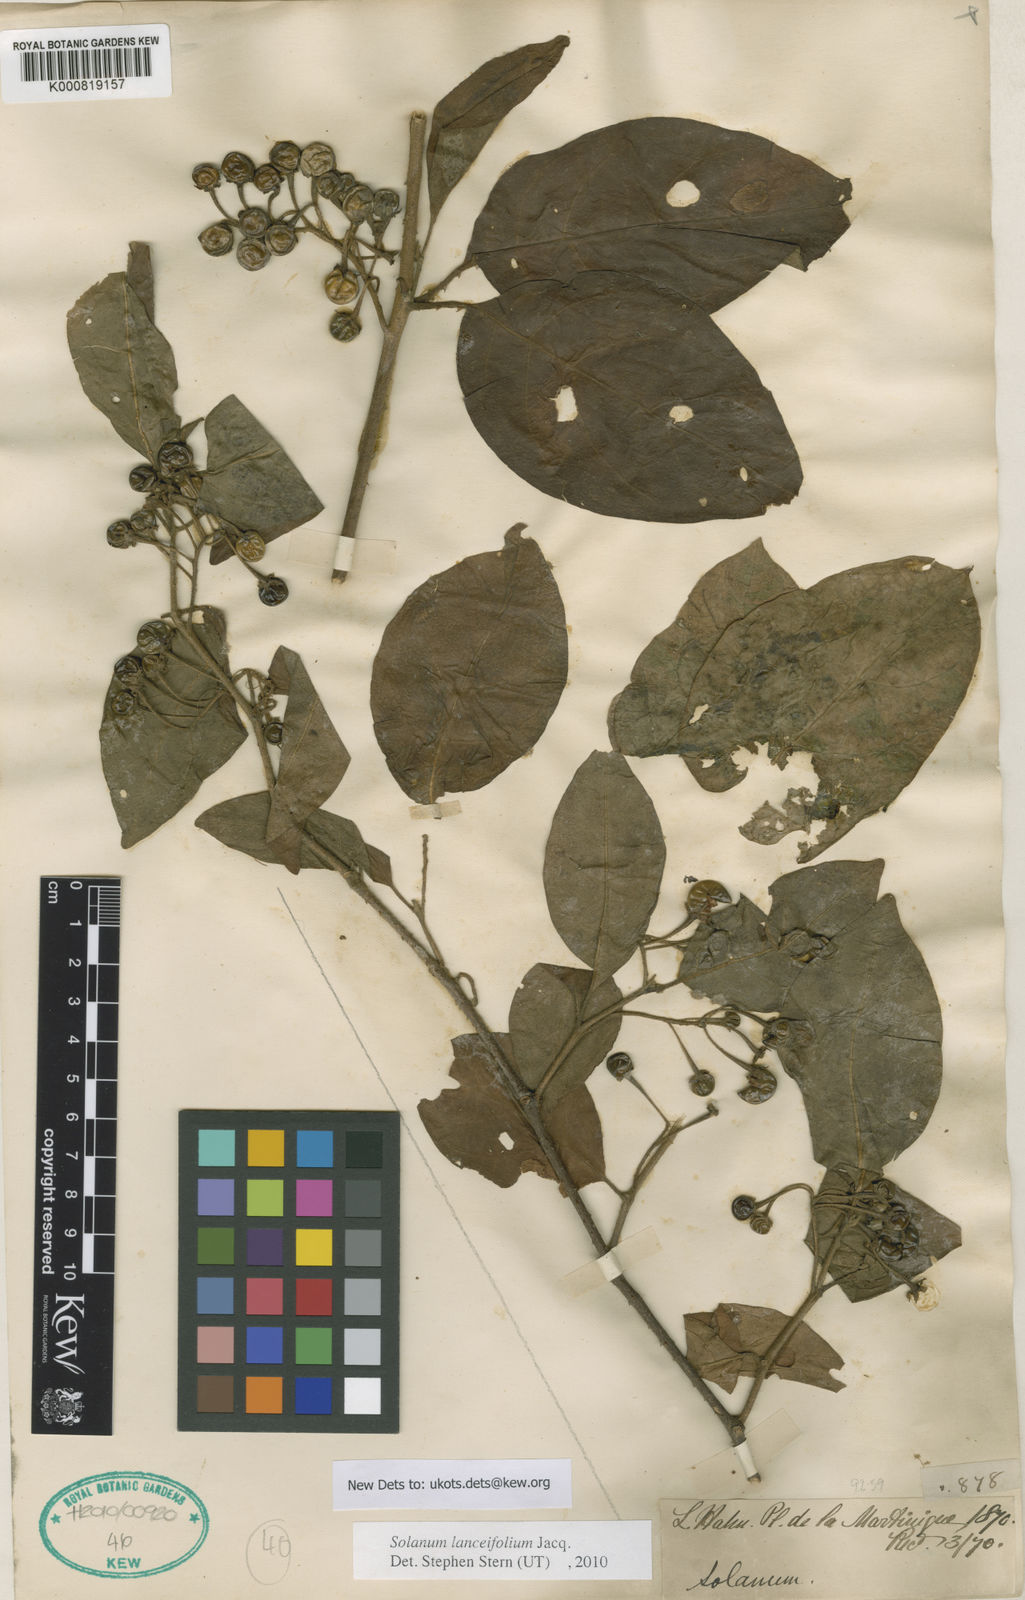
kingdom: Plantae
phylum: Tracheophyta
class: Magnoliopsida
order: Solanales
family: Solanaceae
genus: Solanum
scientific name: Solanum lanceifolium
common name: Lanceleaf nightshade
